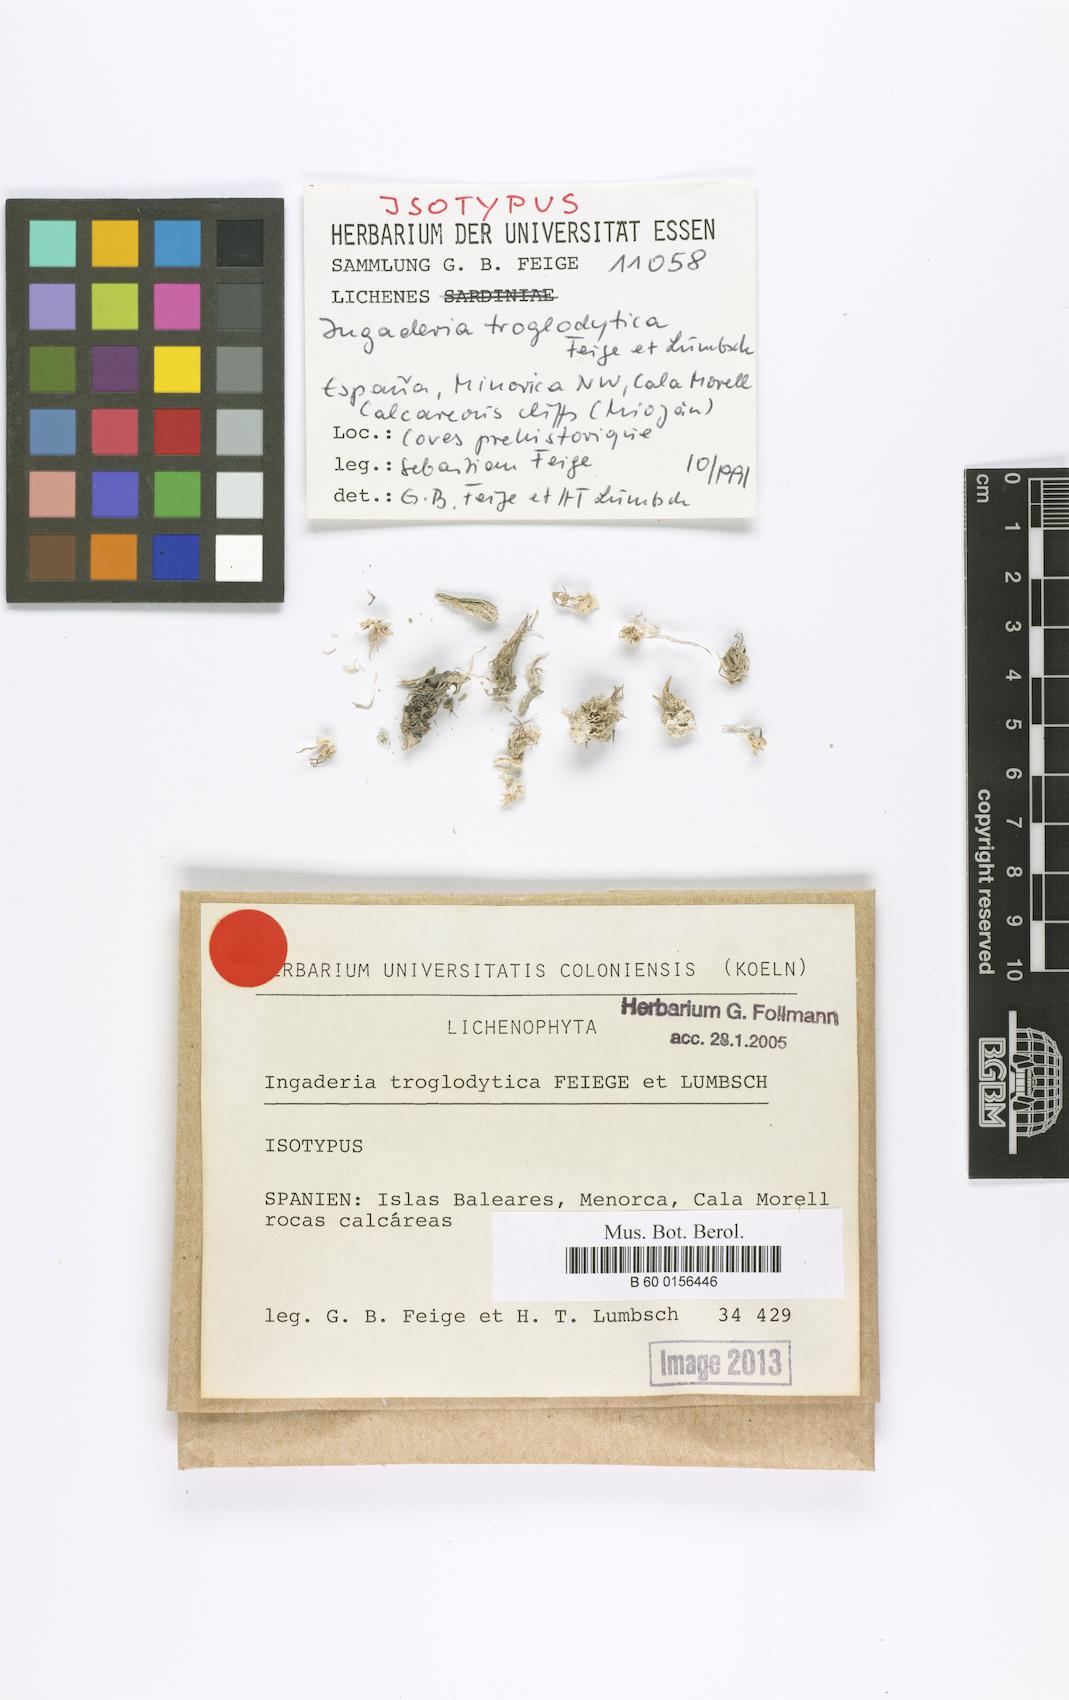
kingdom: Fungi
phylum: Ascomycota
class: Arthoniomycetes
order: Arthoniales
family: Roccellaceae
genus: Paralecanographa
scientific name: Paralecanographa grumulosa
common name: Churchyard lecanactis
